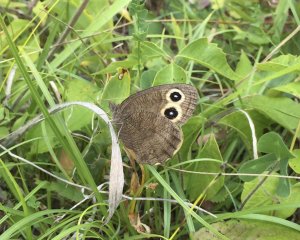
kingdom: Animalia
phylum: Arthropoda
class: Insecta
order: Lepidoptera
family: Nymphalidae
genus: Cercyonis
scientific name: Cercyonis pegala
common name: Common Wood-Nymph
